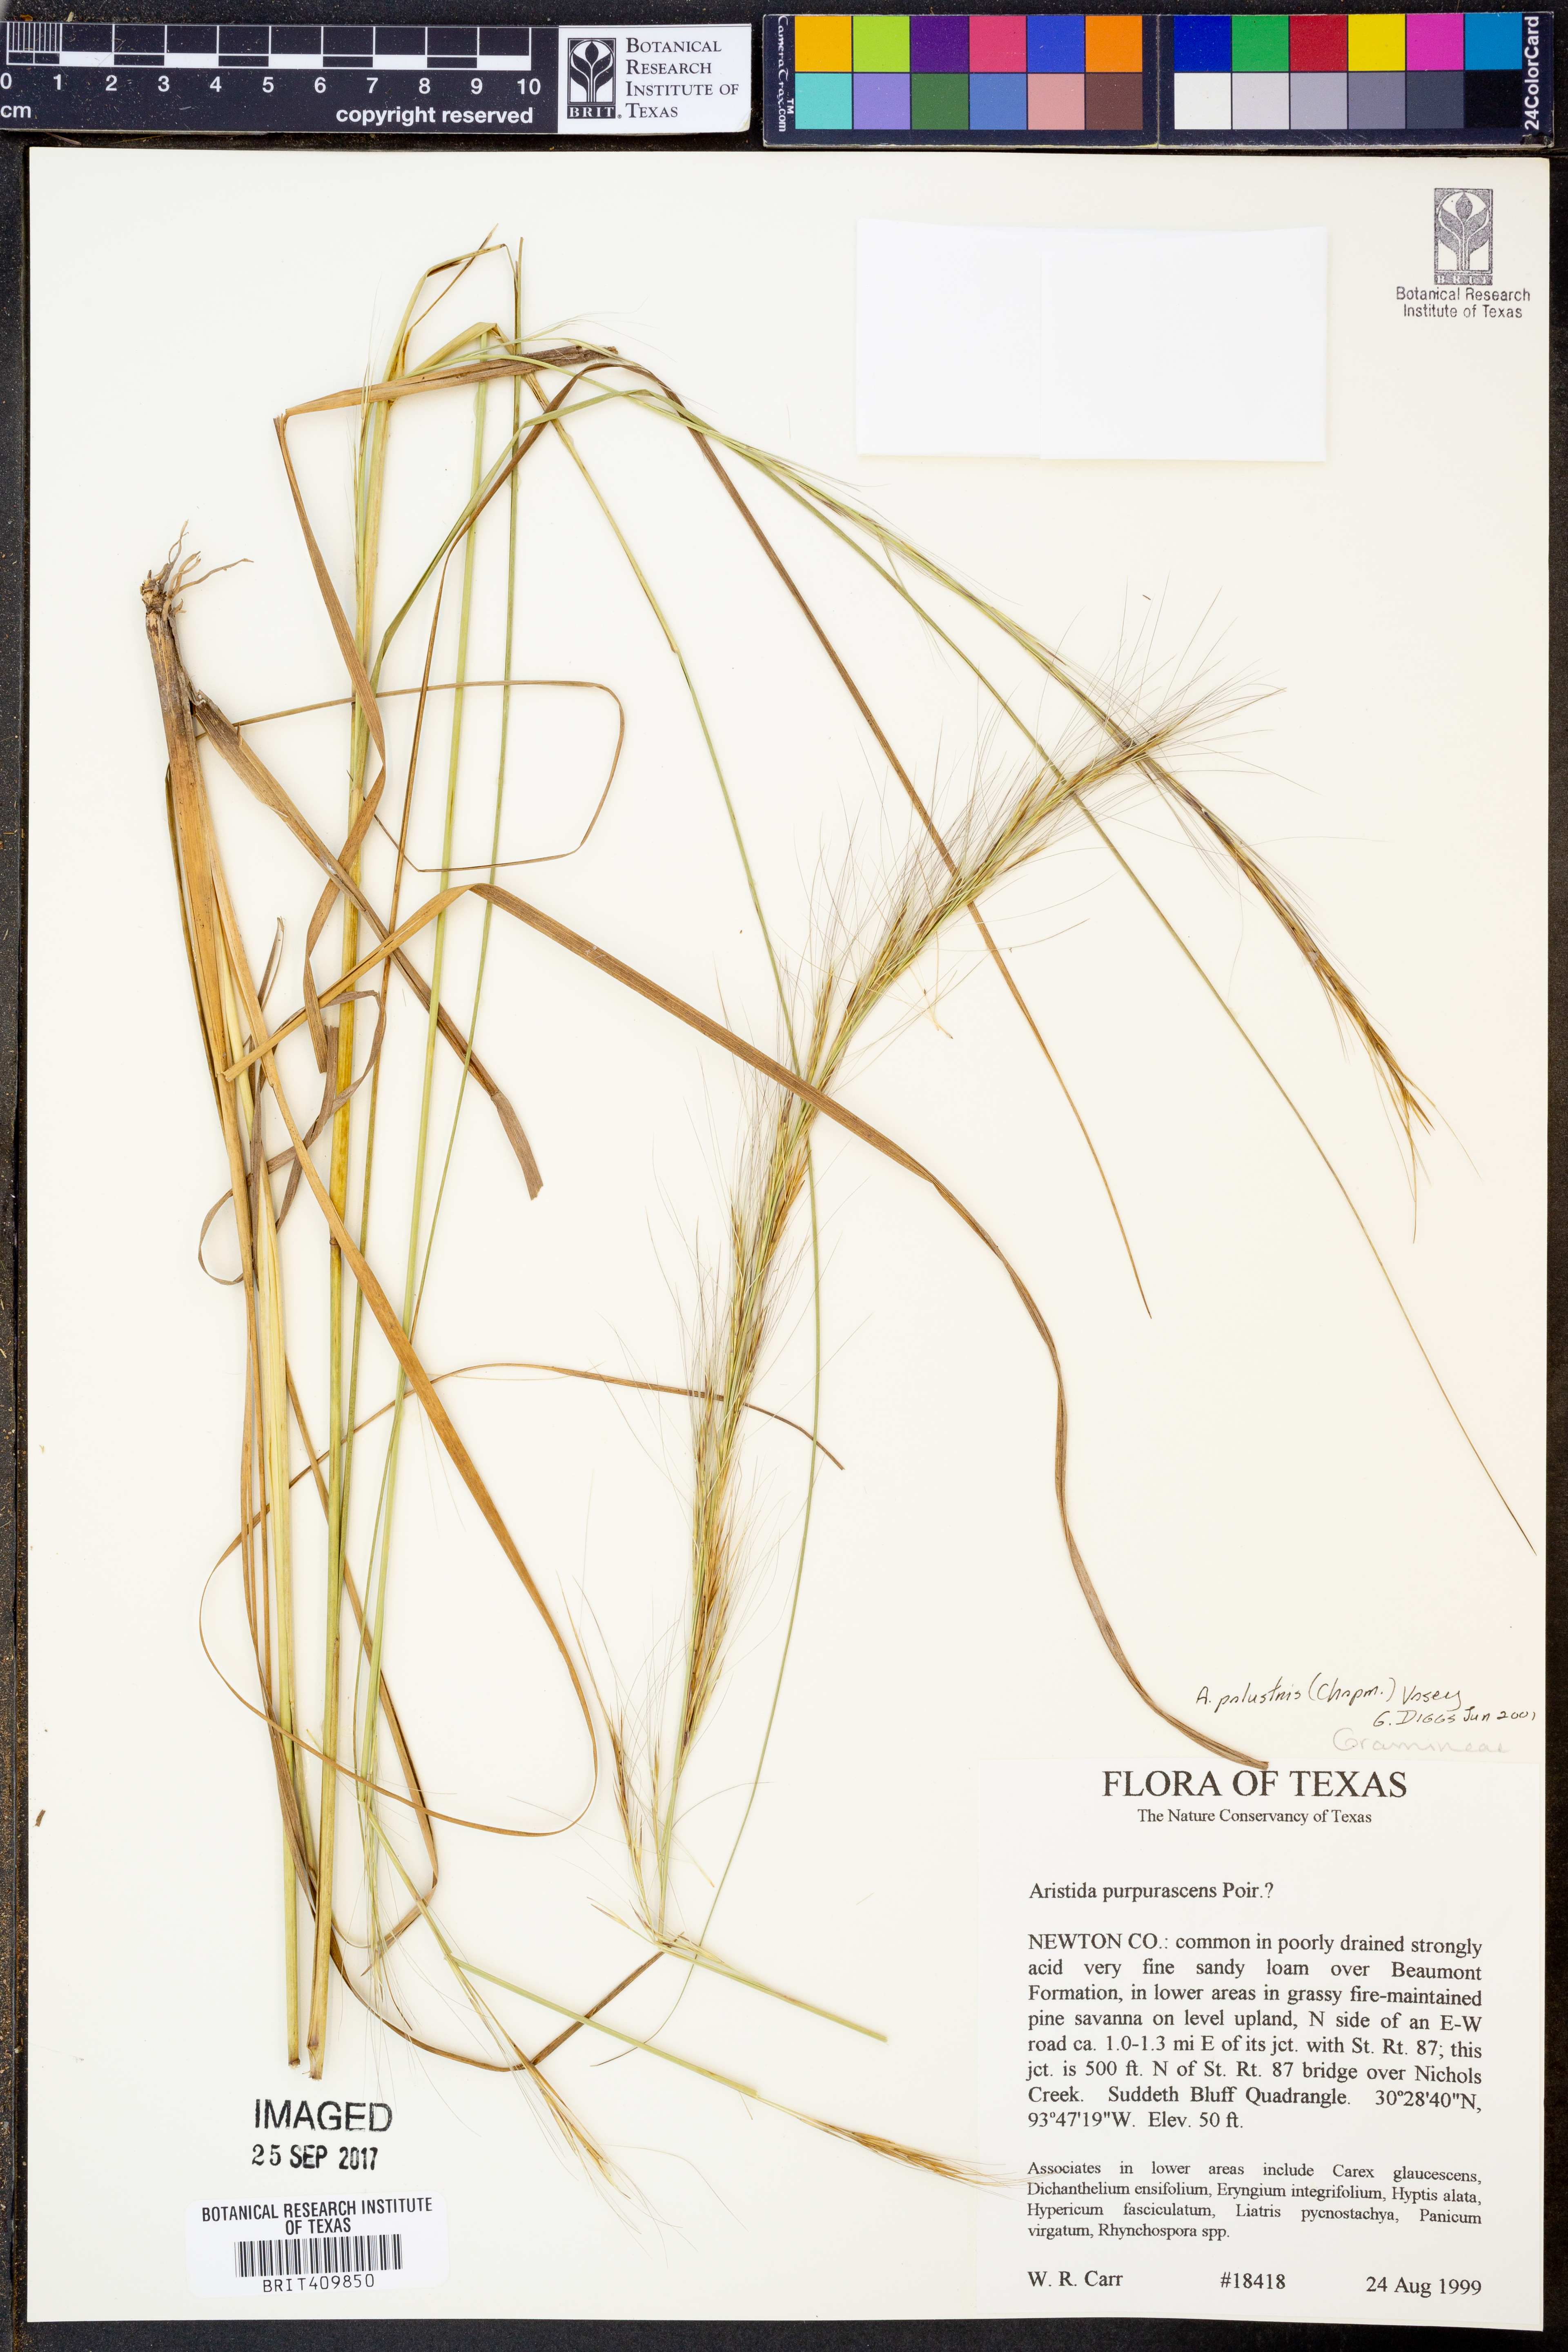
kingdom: Plantae
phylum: Tracheophyta
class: Liliopsida
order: Poales
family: Poaceae
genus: Aristida
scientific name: Aristida palustris
